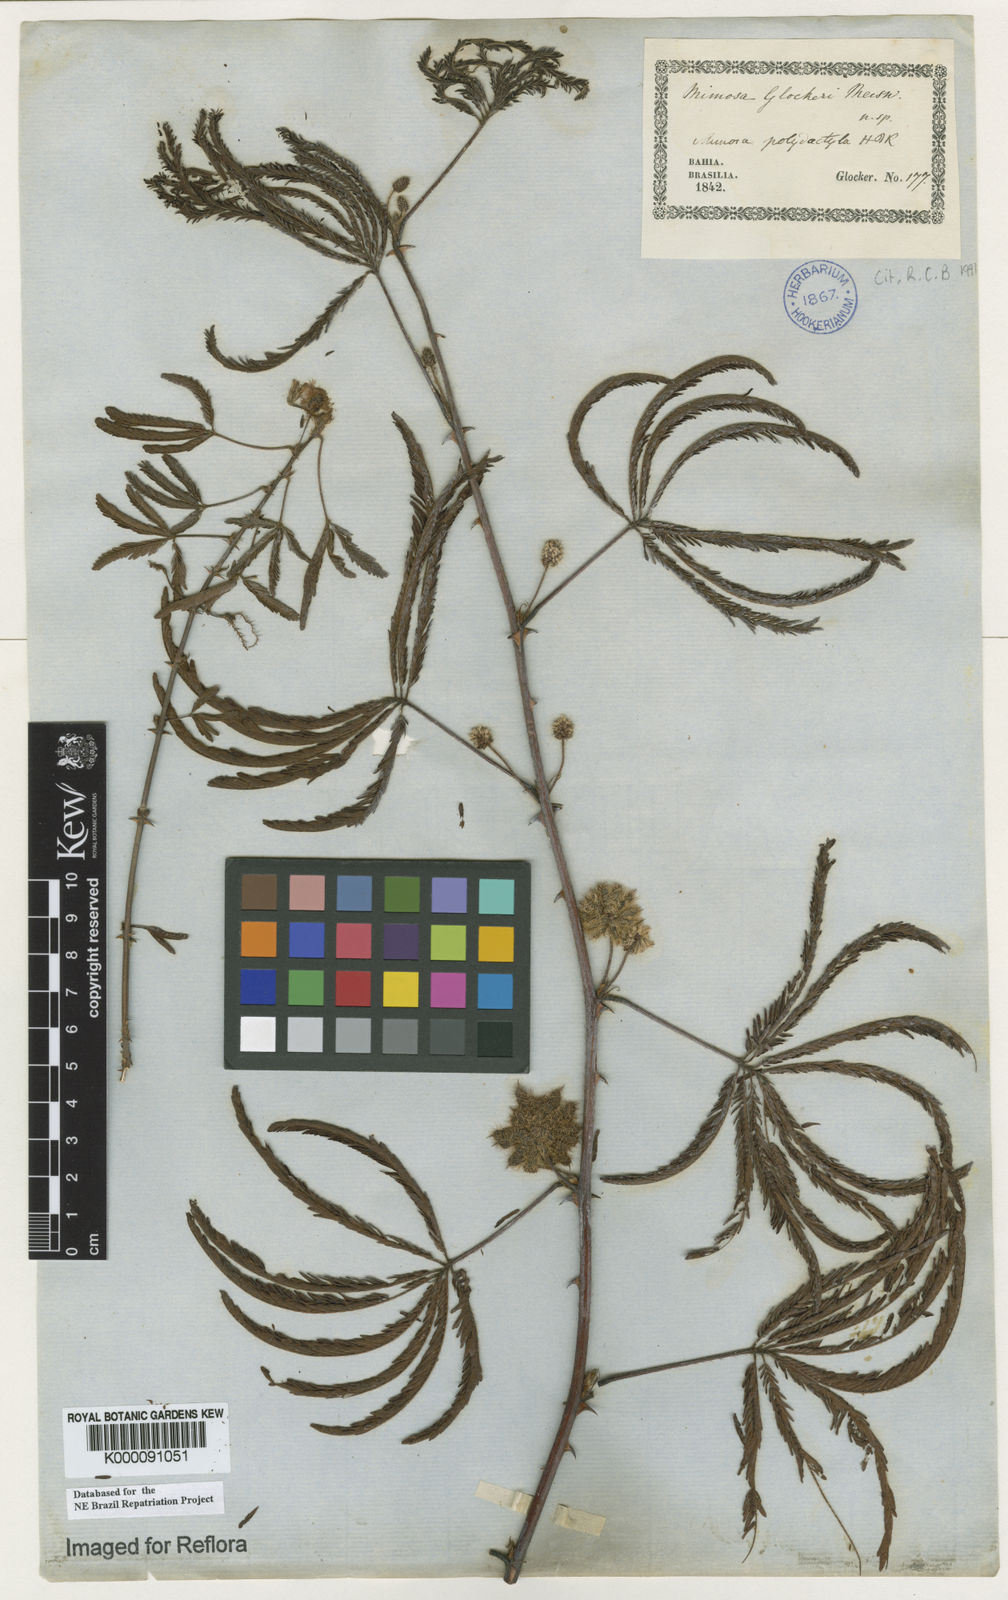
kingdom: Plantae
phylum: Tracheophyta
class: Magnoliopsida
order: Fabales
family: Fabaceae
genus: Mimosa
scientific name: Mimosa
